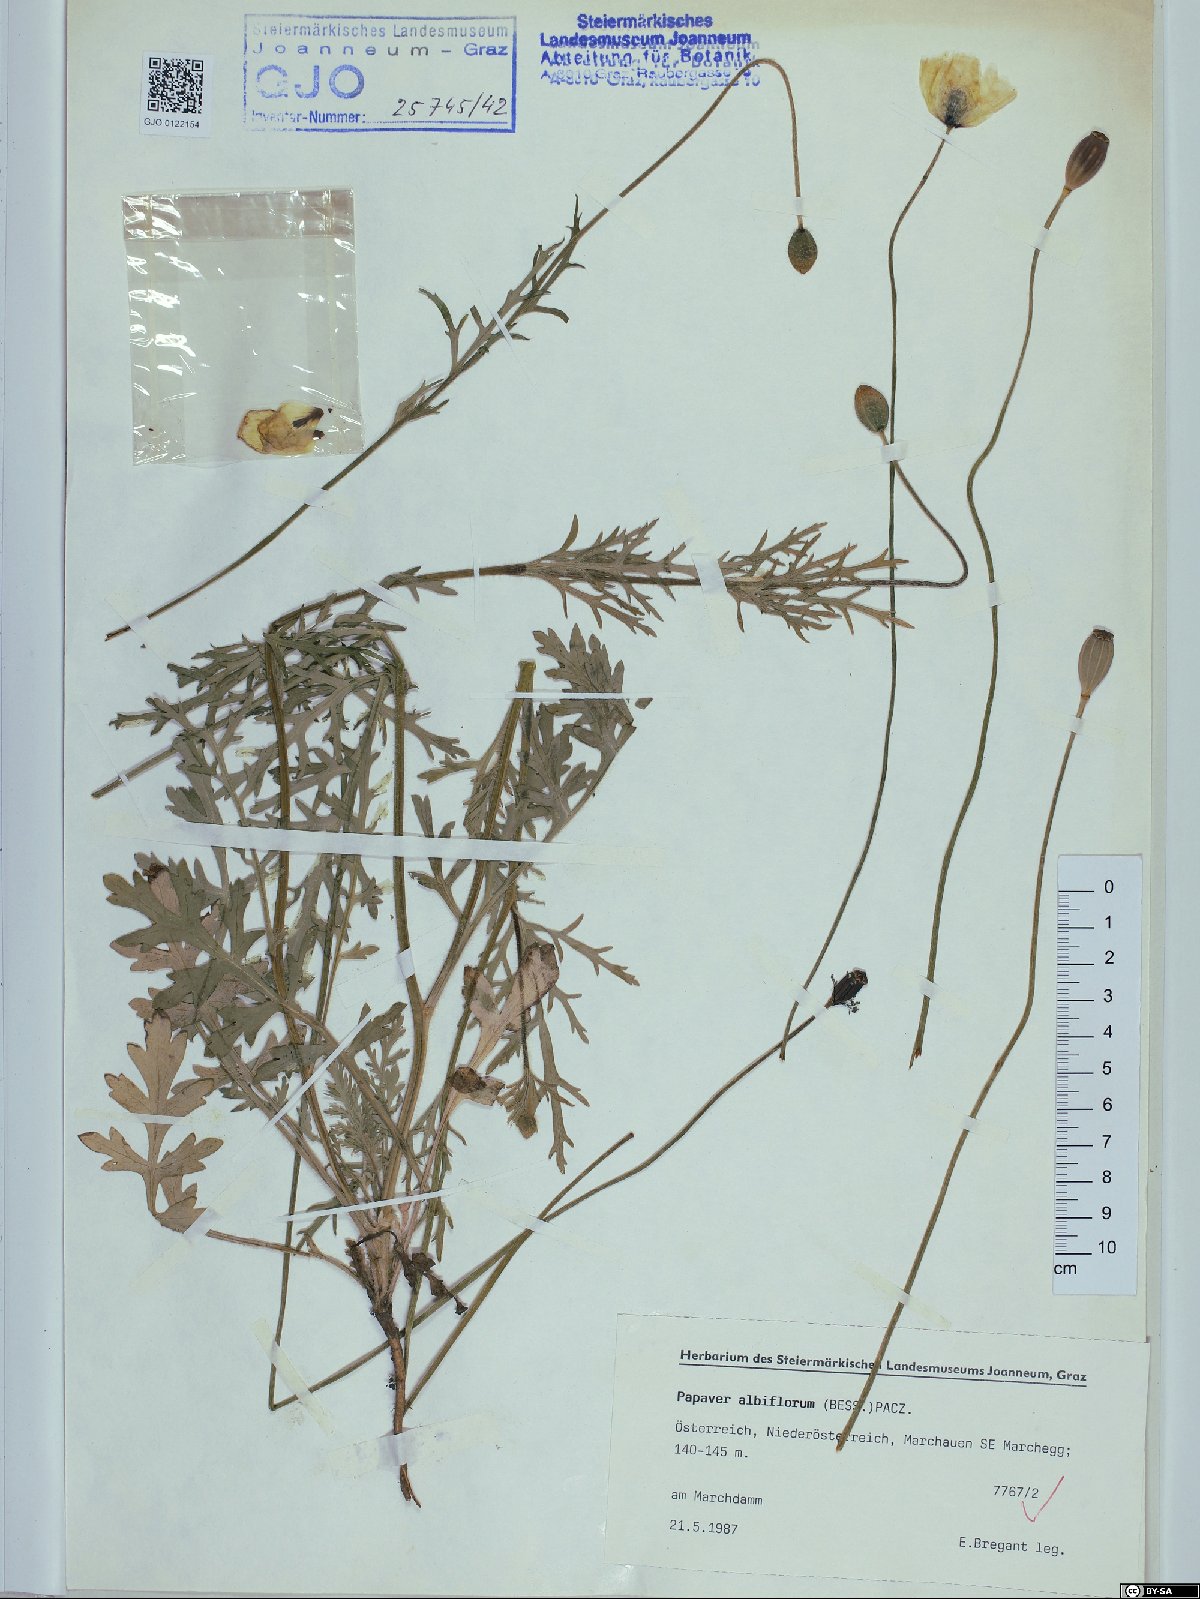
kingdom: Plantae
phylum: Tracheophyta
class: Magnoliopsida
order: Ranunculales
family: Papaveraceae
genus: Papaver
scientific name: Papaver dubium
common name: Long-headed poppy
